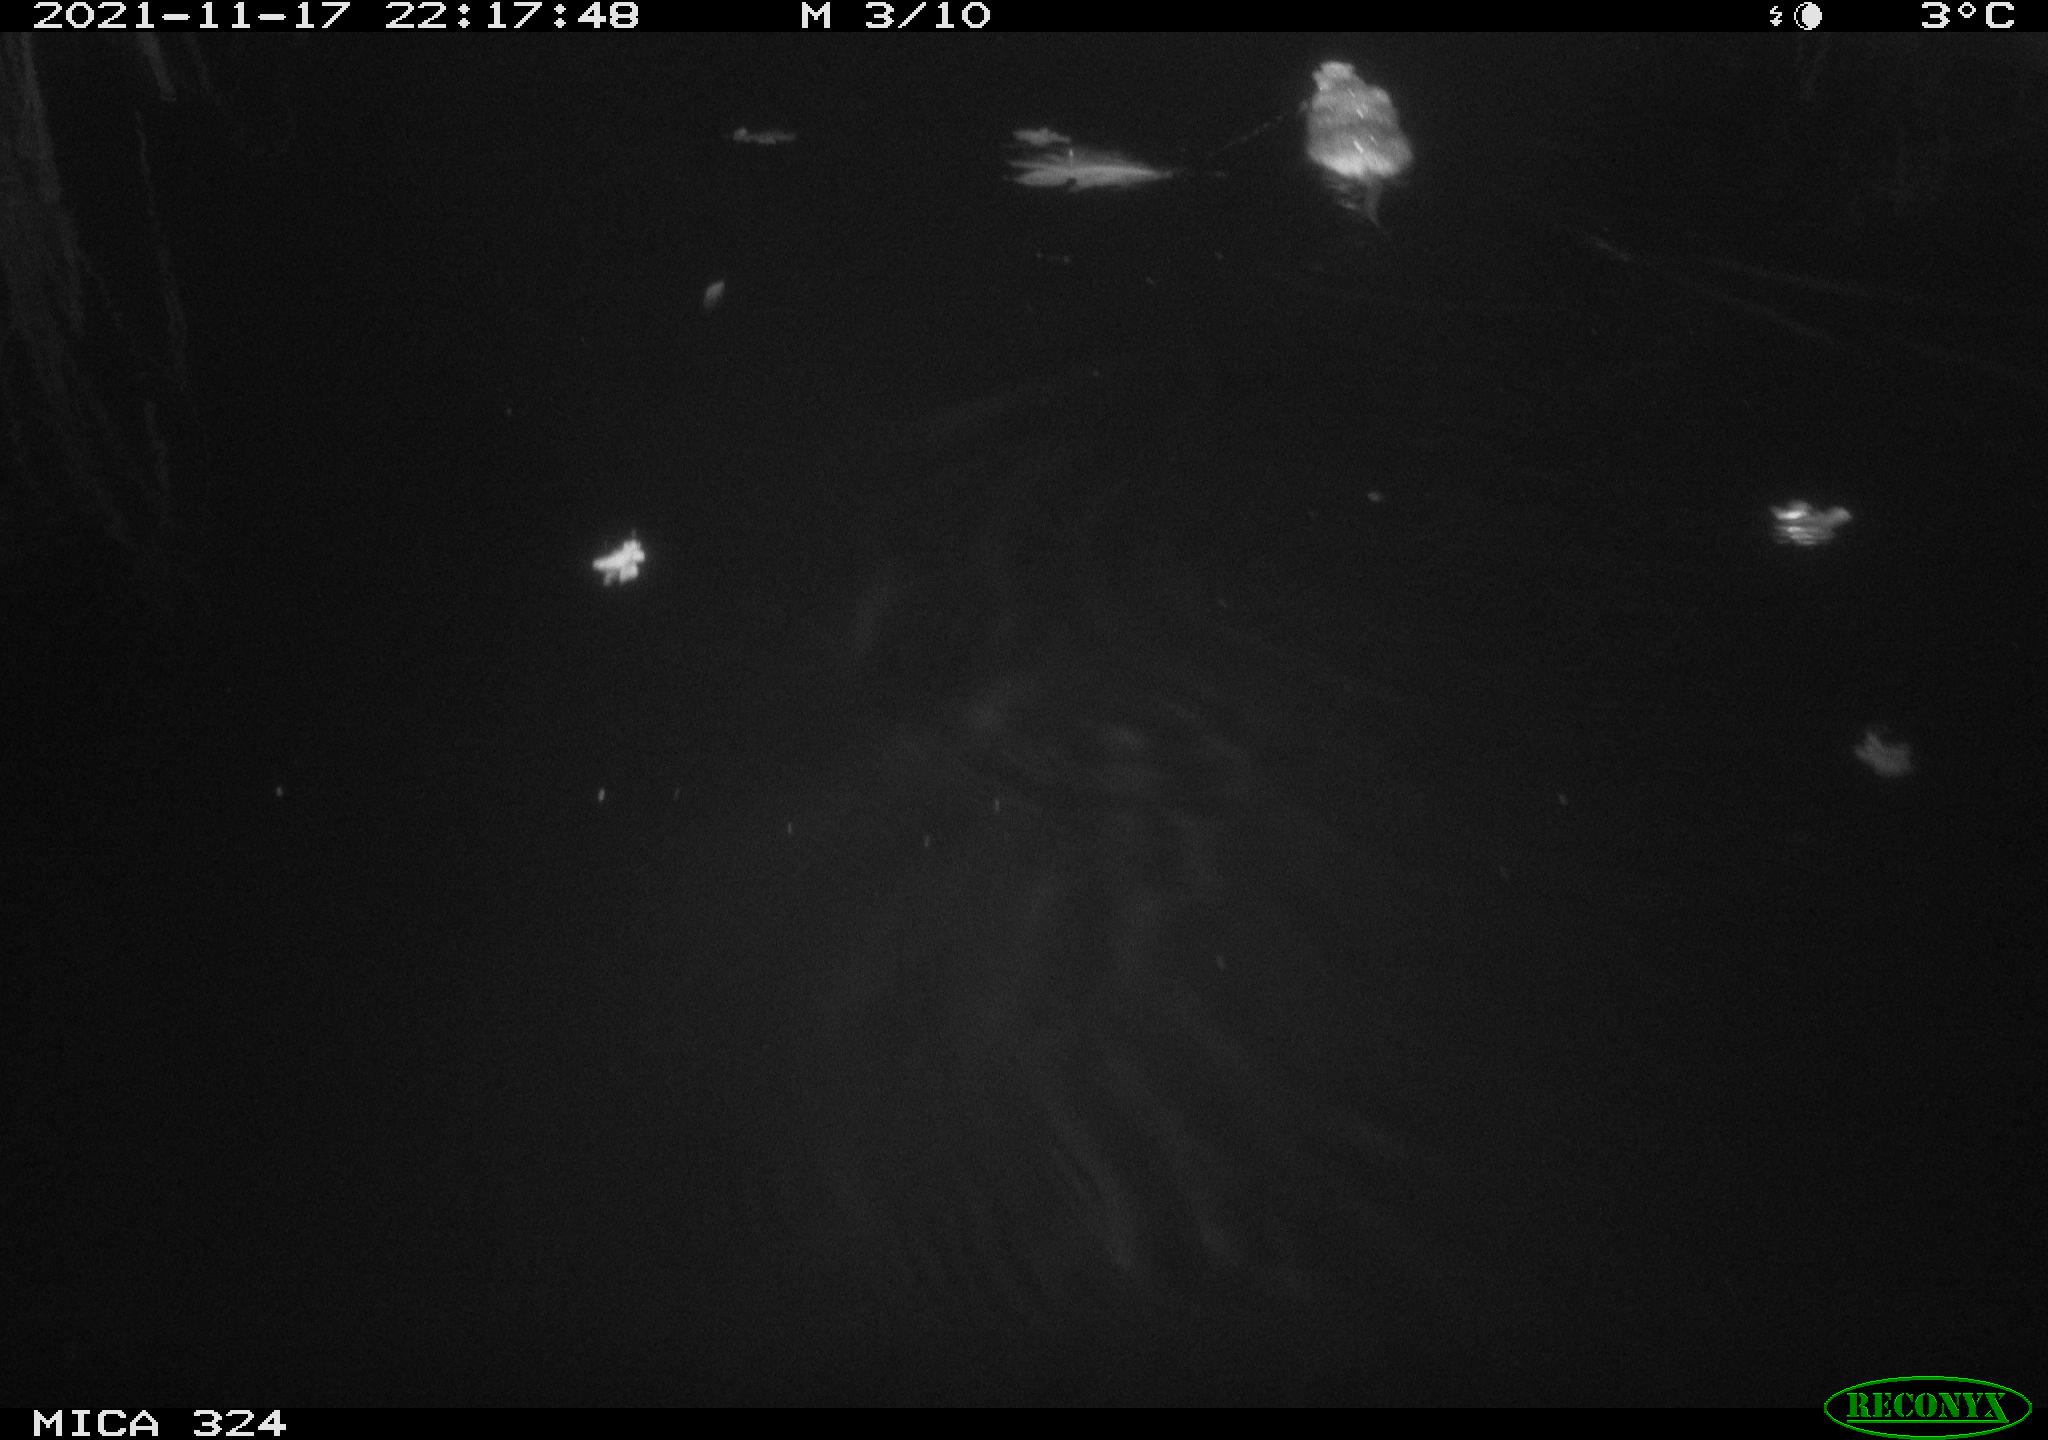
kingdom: Animalia
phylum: Chordata
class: Mammalia
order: Rodentia
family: Cricetidae
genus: Ondatra
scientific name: Ondatra zibethicus
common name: Muskrat
